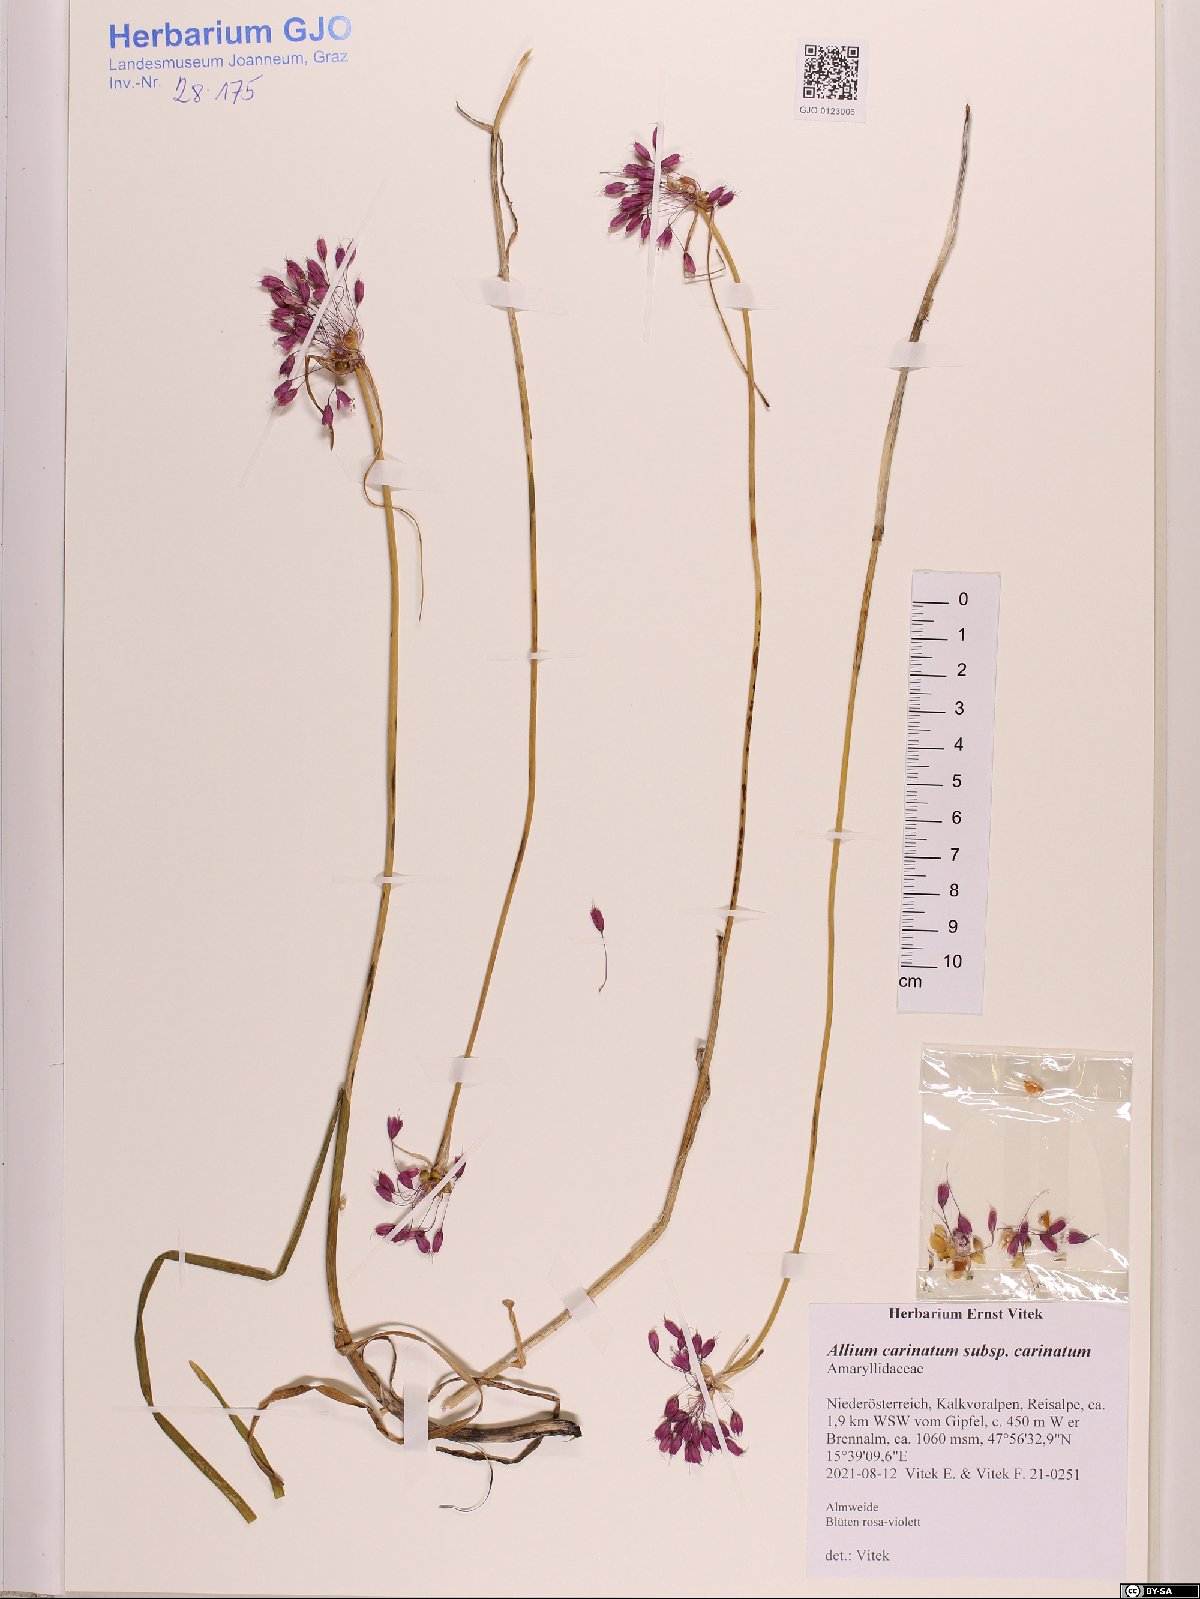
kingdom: Plantae
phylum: Tracheophyta
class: Liliopsida
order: Asparagales
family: Amaryllidaceae
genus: Allium
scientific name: Allium carinatum
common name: Keeled garlic
